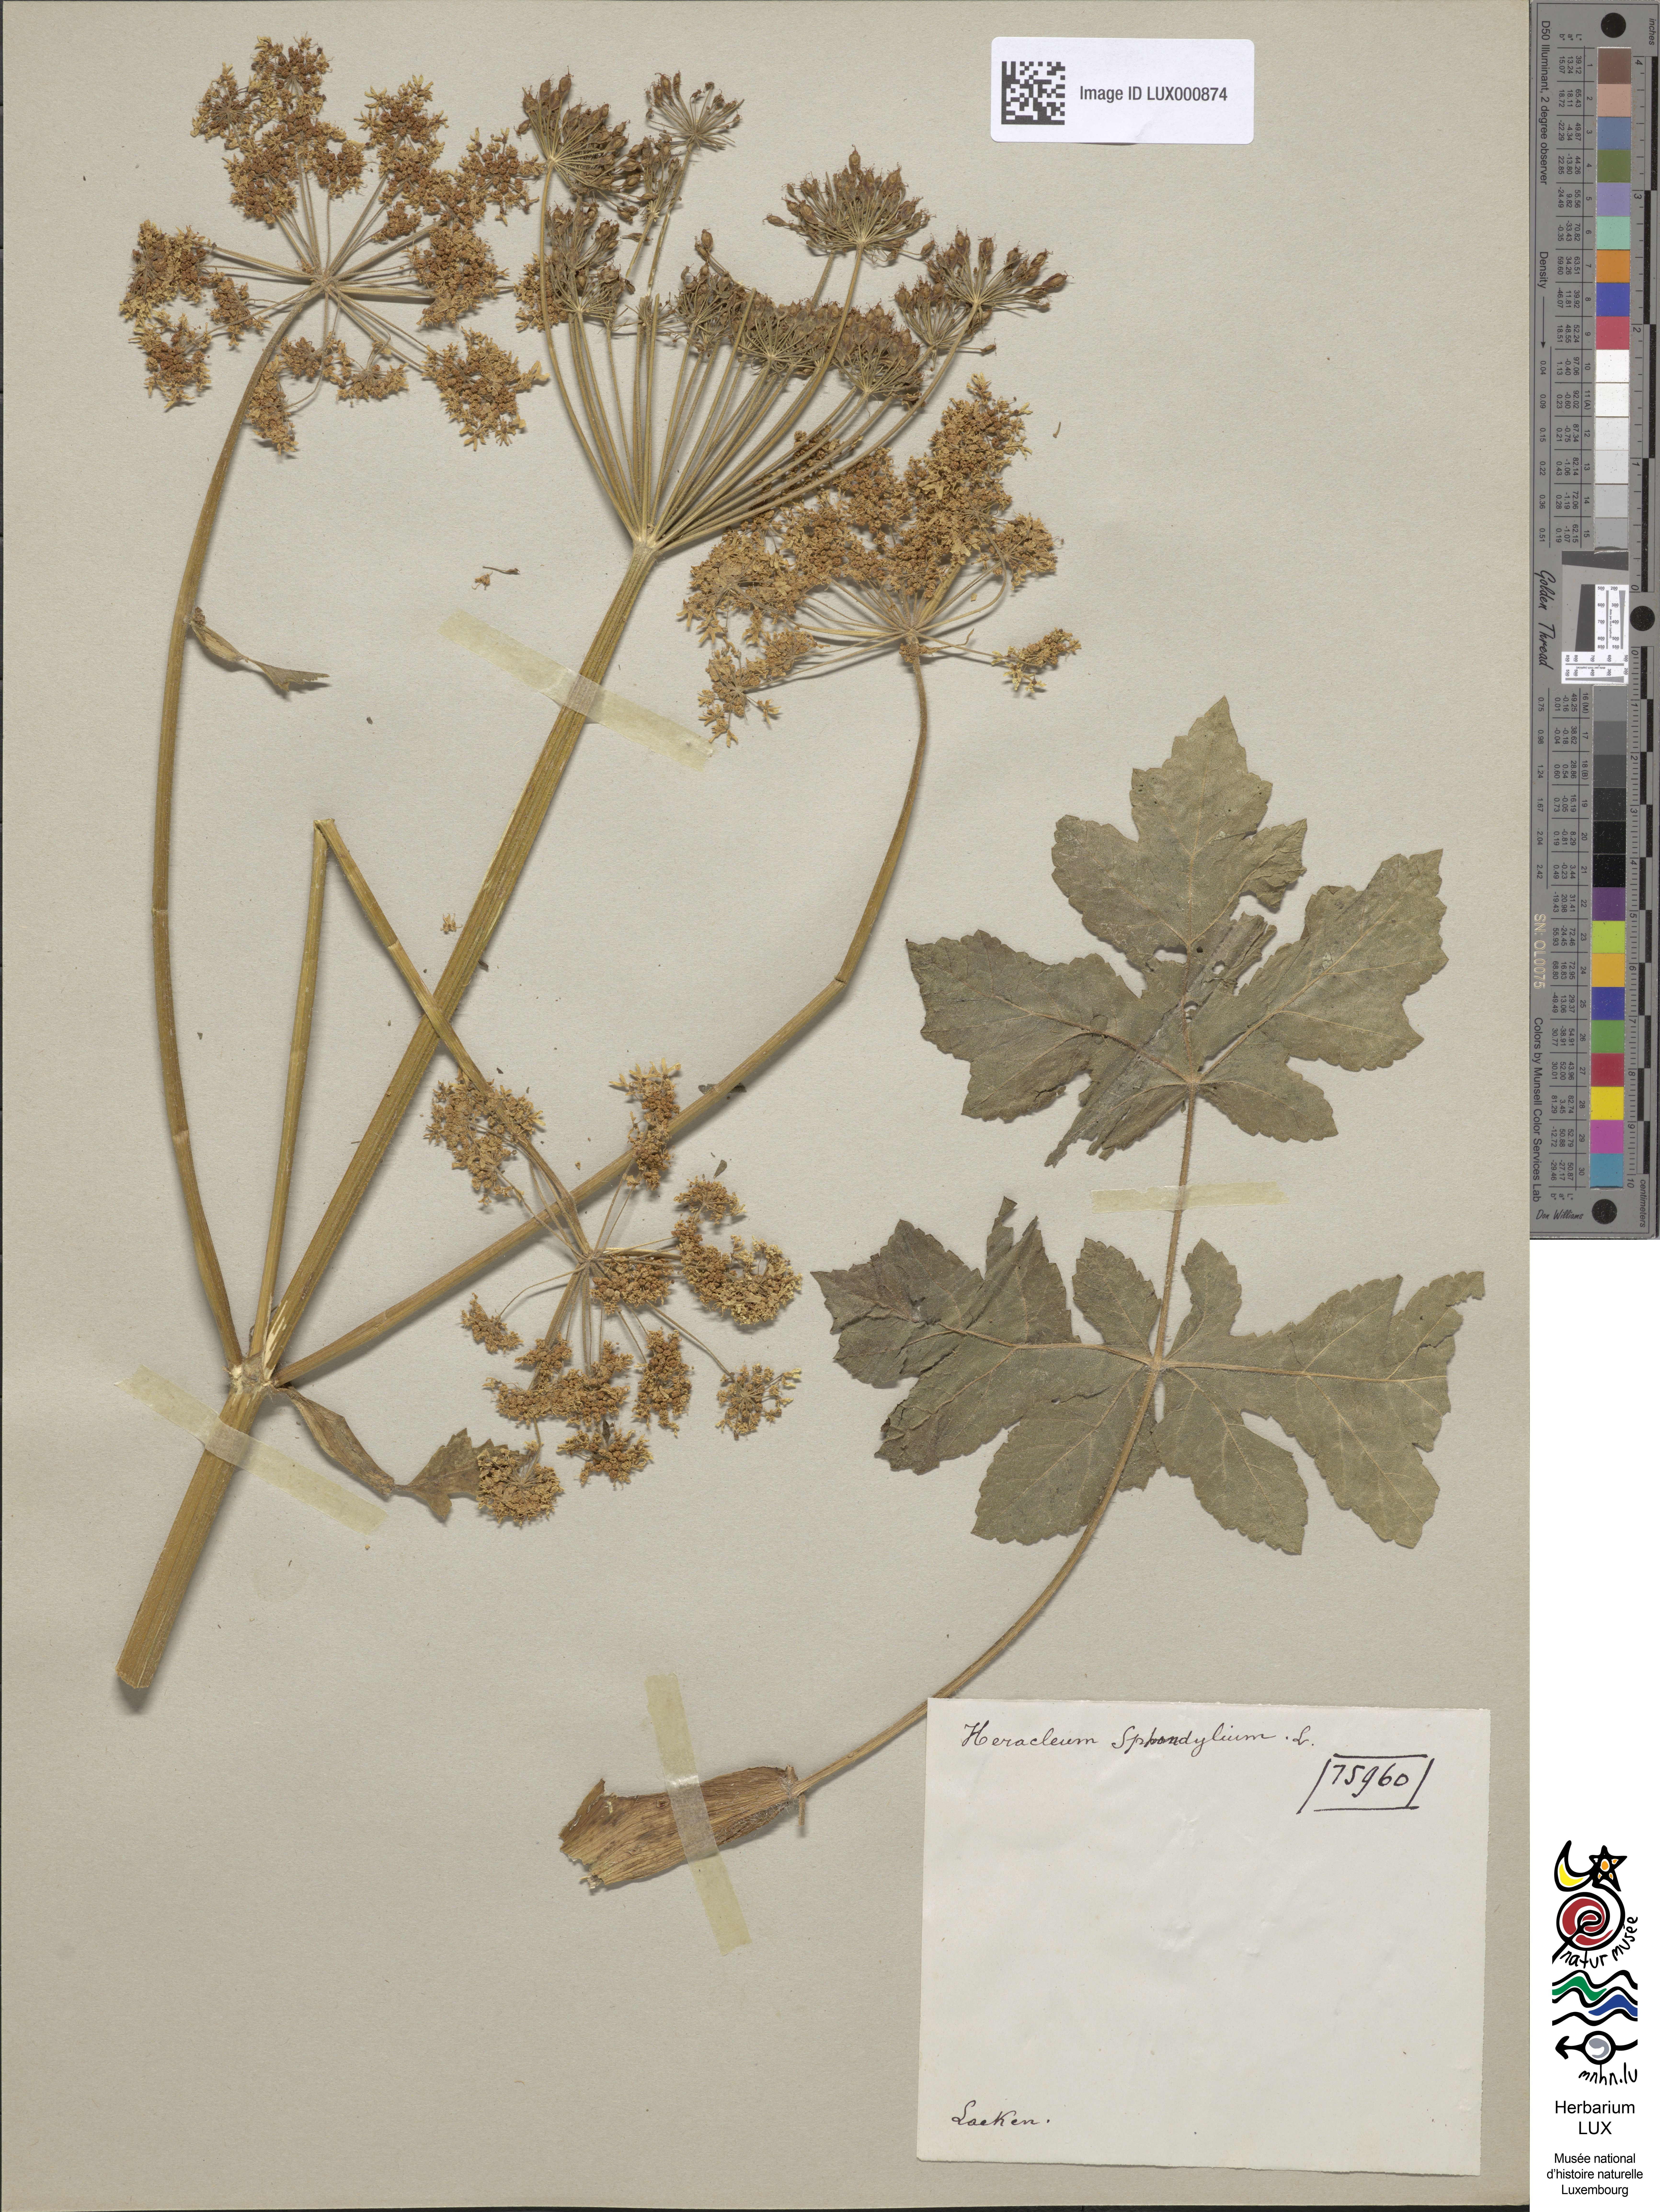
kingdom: Plantae
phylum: Tracheophyta
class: Magnoliopsida
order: Apiales
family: Apiaceae
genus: Heracleum
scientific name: Heracleum sphondylium
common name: Hogweed
